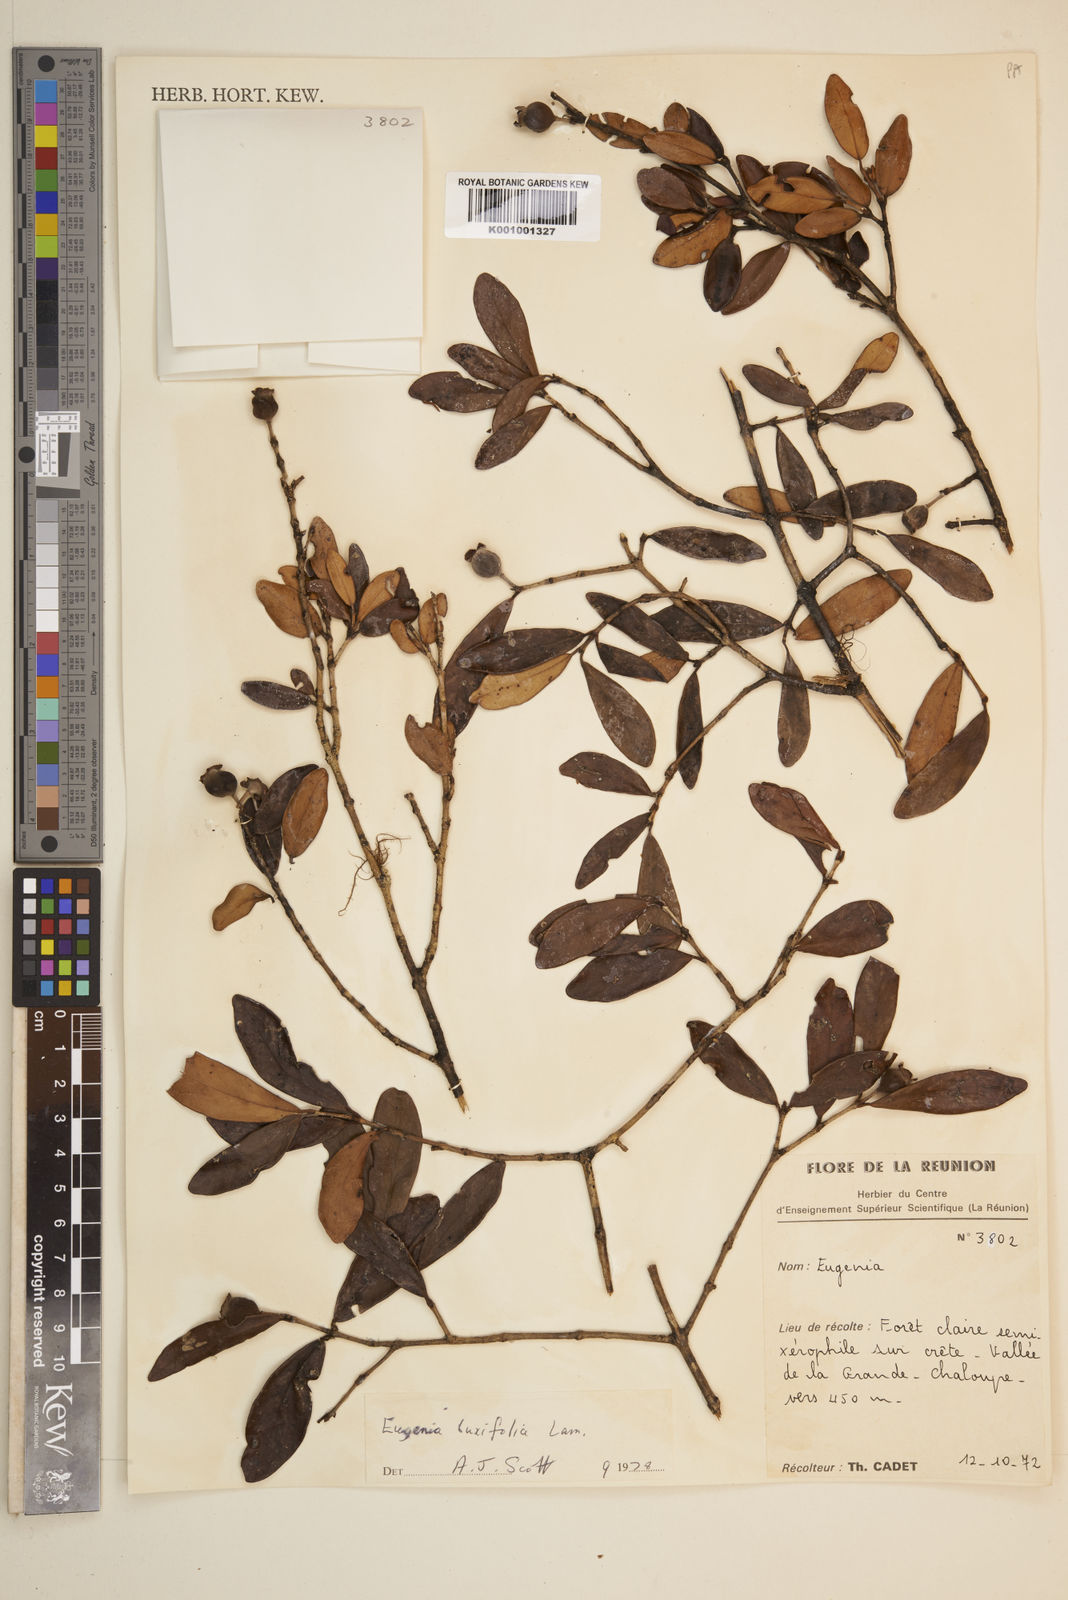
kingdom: Plantae
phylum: Tracheophyta
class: Magnoliopsida
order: Myrtales
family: Myrtaceae
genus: Eugenia
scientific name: Eugenia buxifolia
